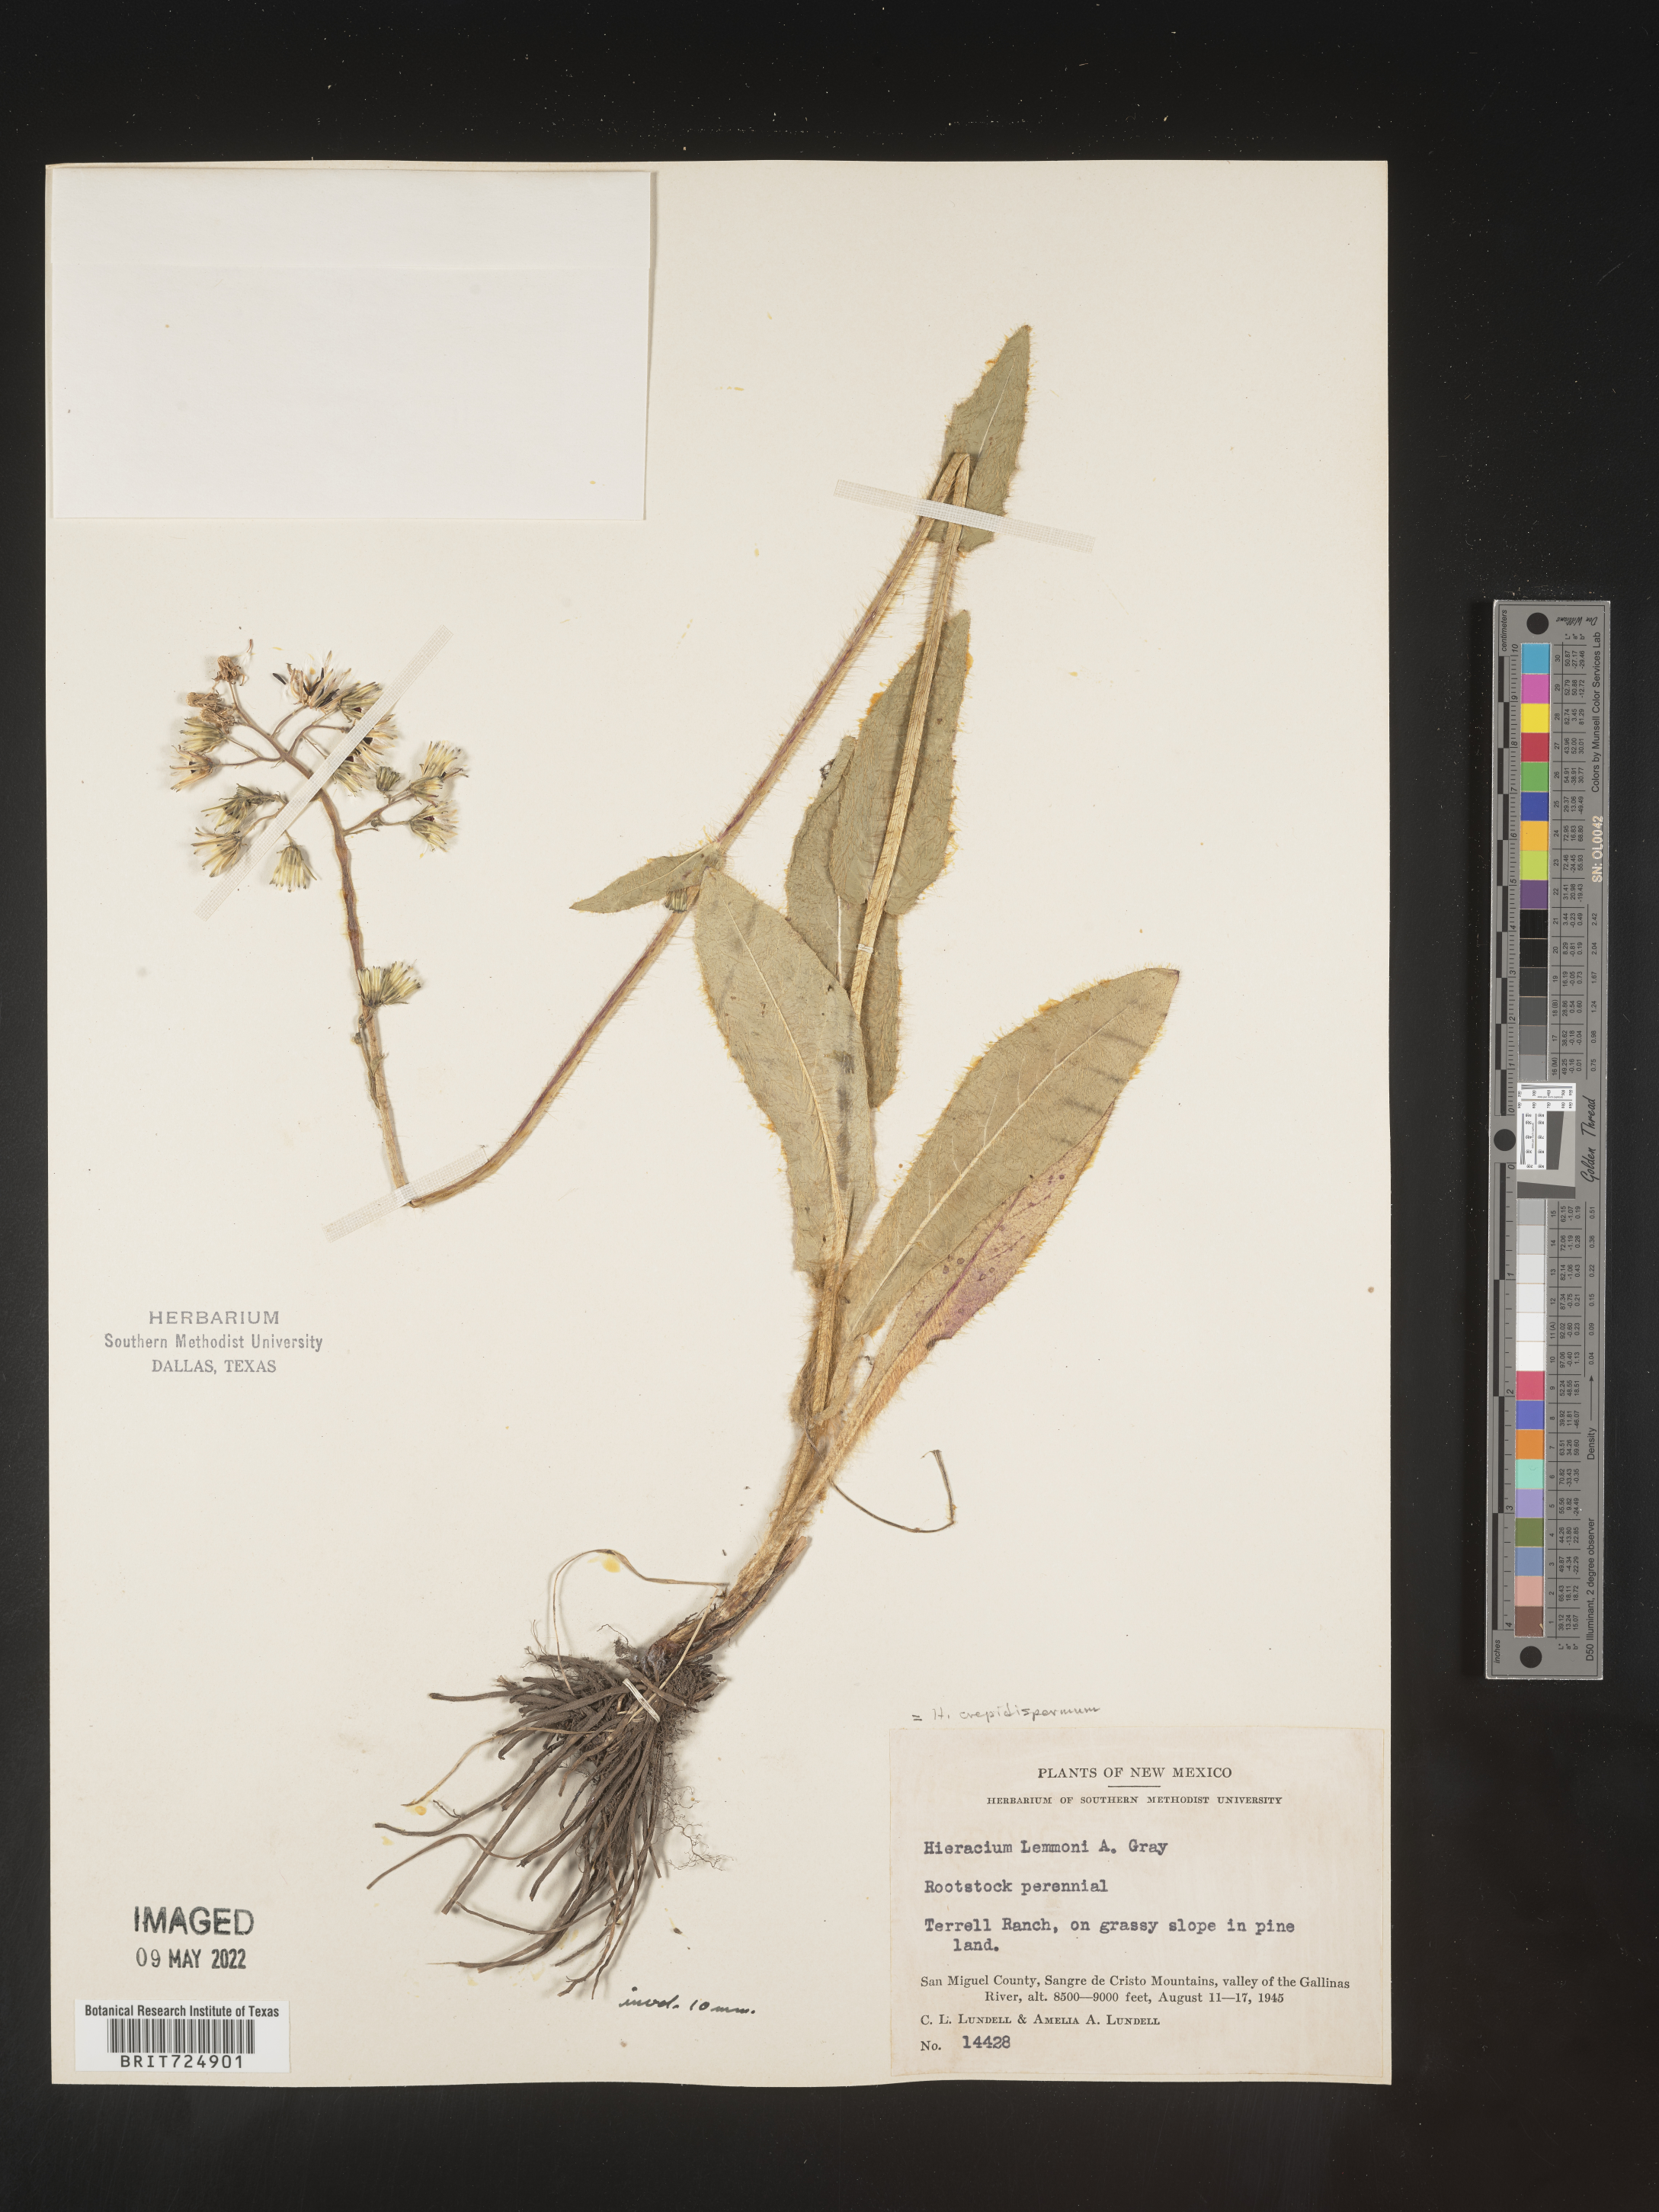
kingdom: Plantae
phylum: Tracheophyta
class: Magnoliopsida
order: Asterales
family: Asteraceae
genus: Hieracium
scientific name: Hieracium
